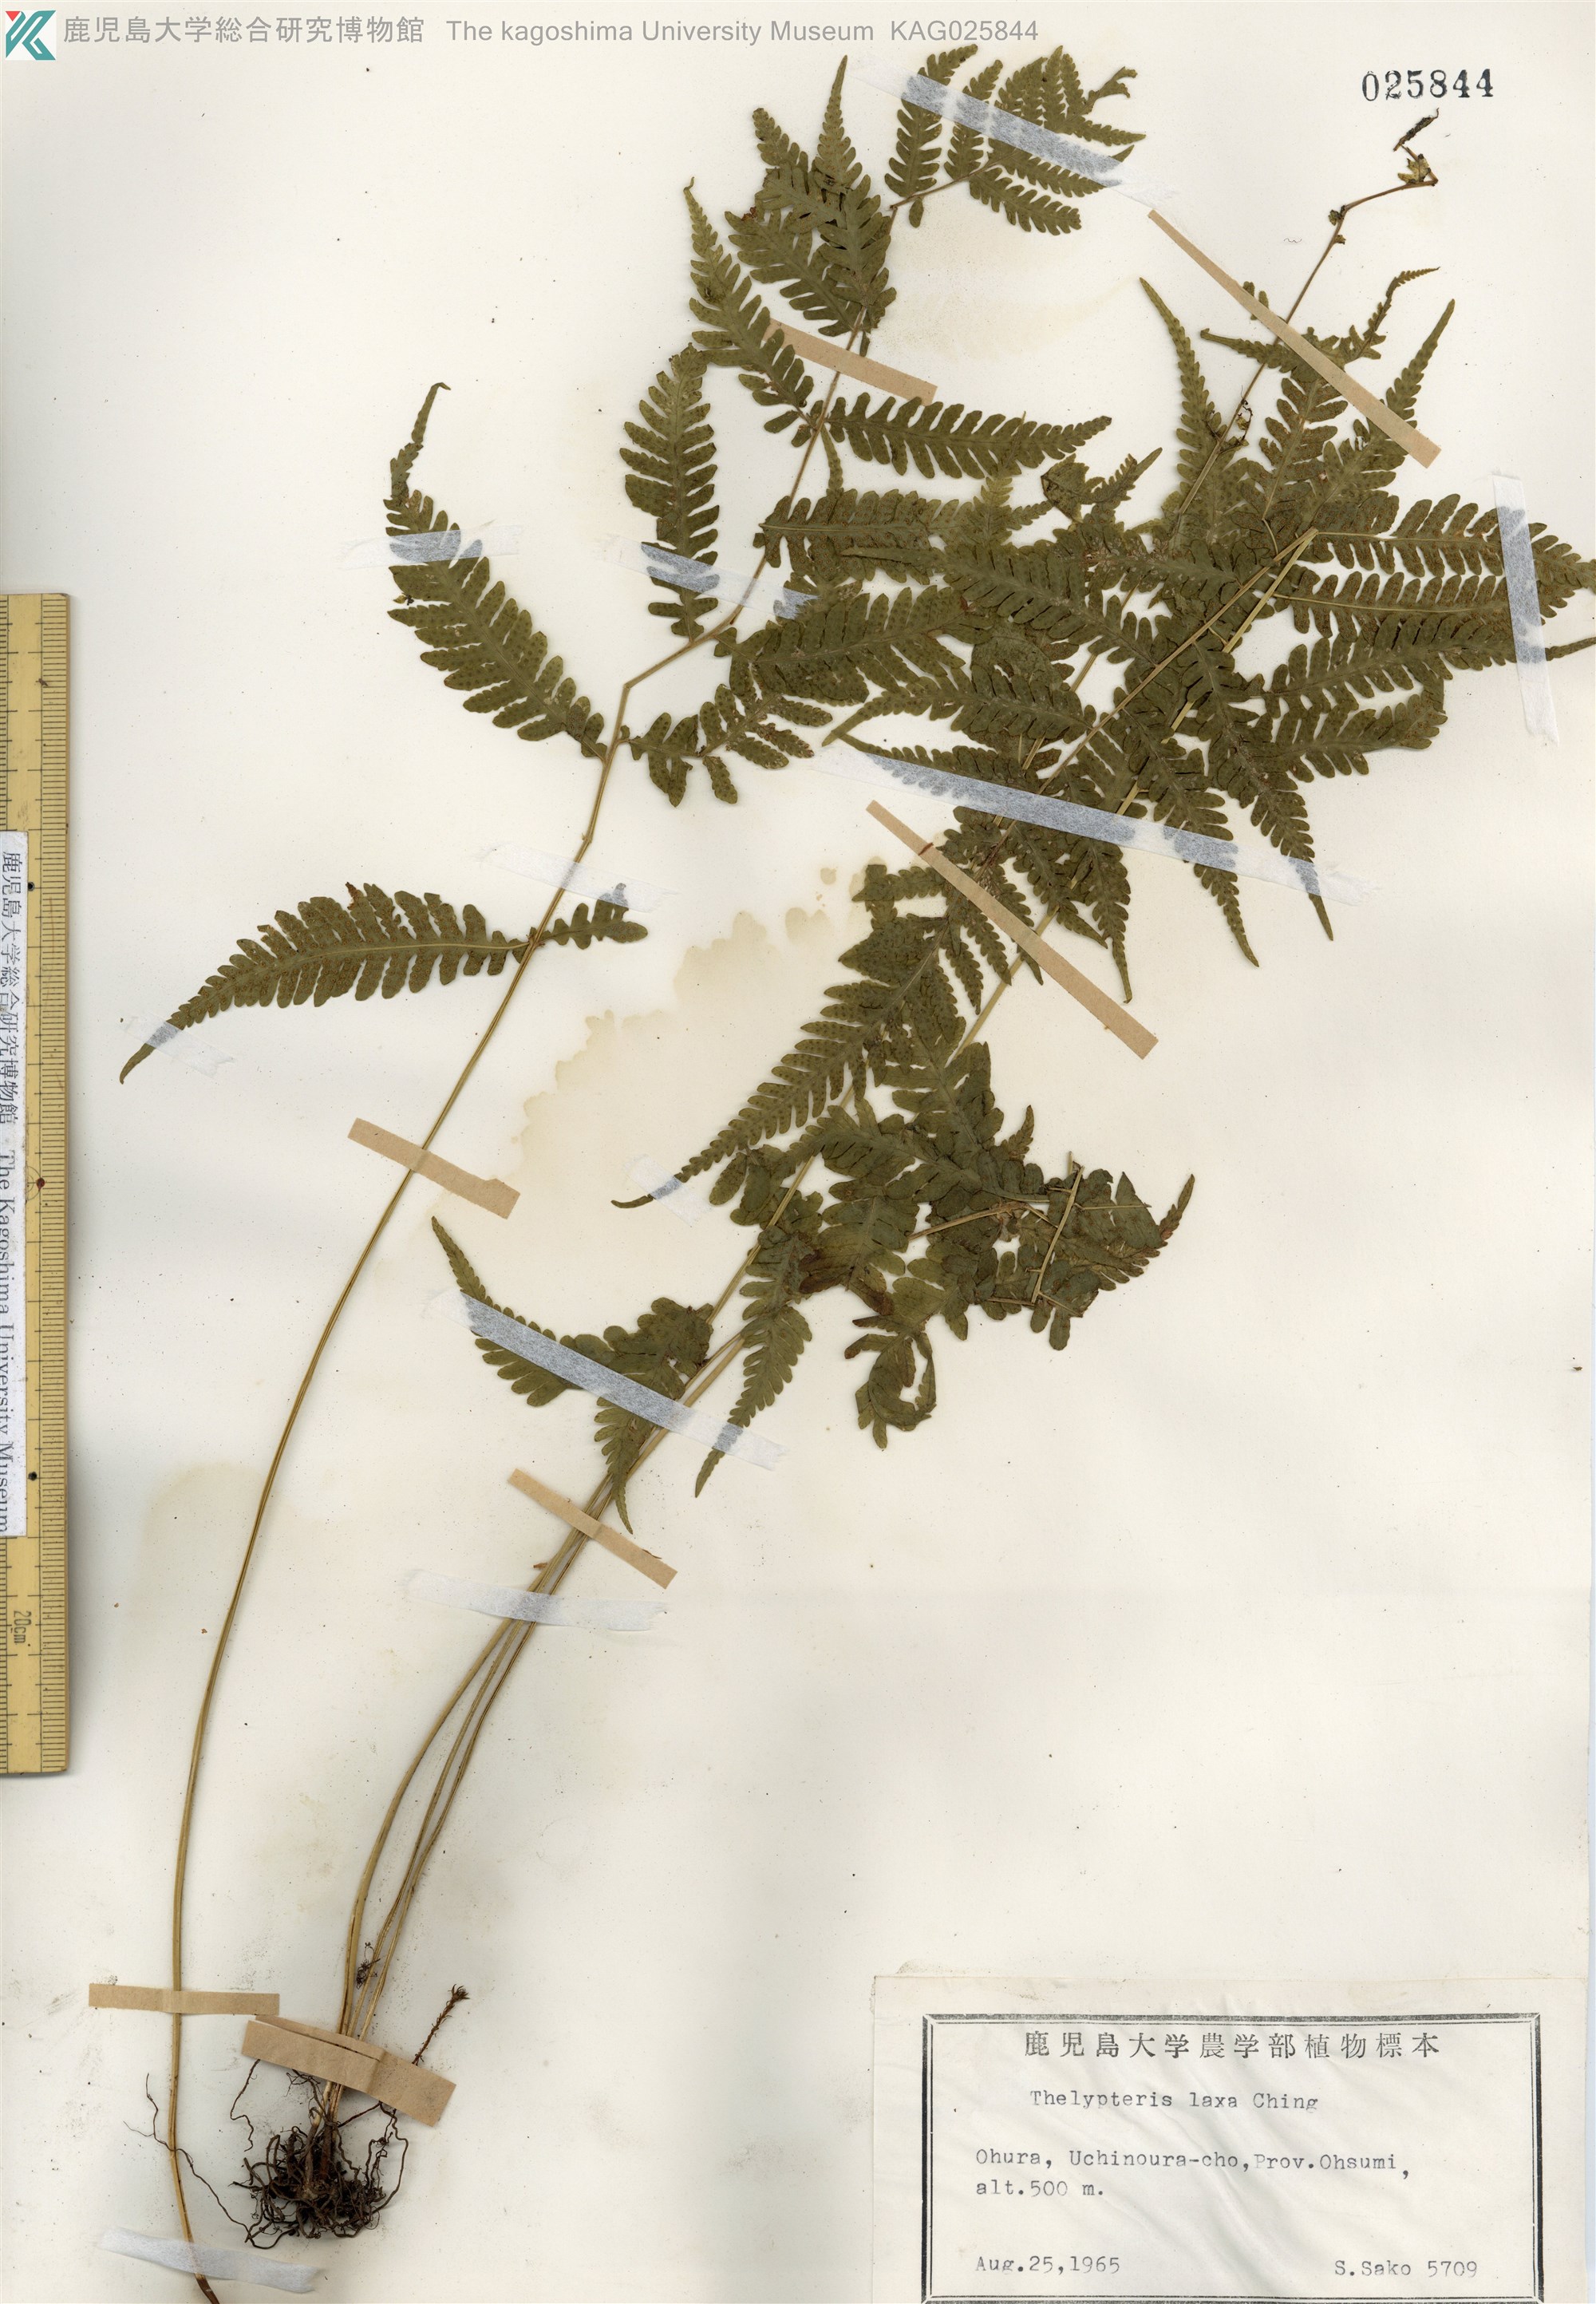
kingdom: Plantae
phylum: Tracheophyta
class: Polypodiopsida
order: Polypodiales
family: Thelypteridaceae
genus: Metathelypteris
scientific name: Metathelypteris laxa
